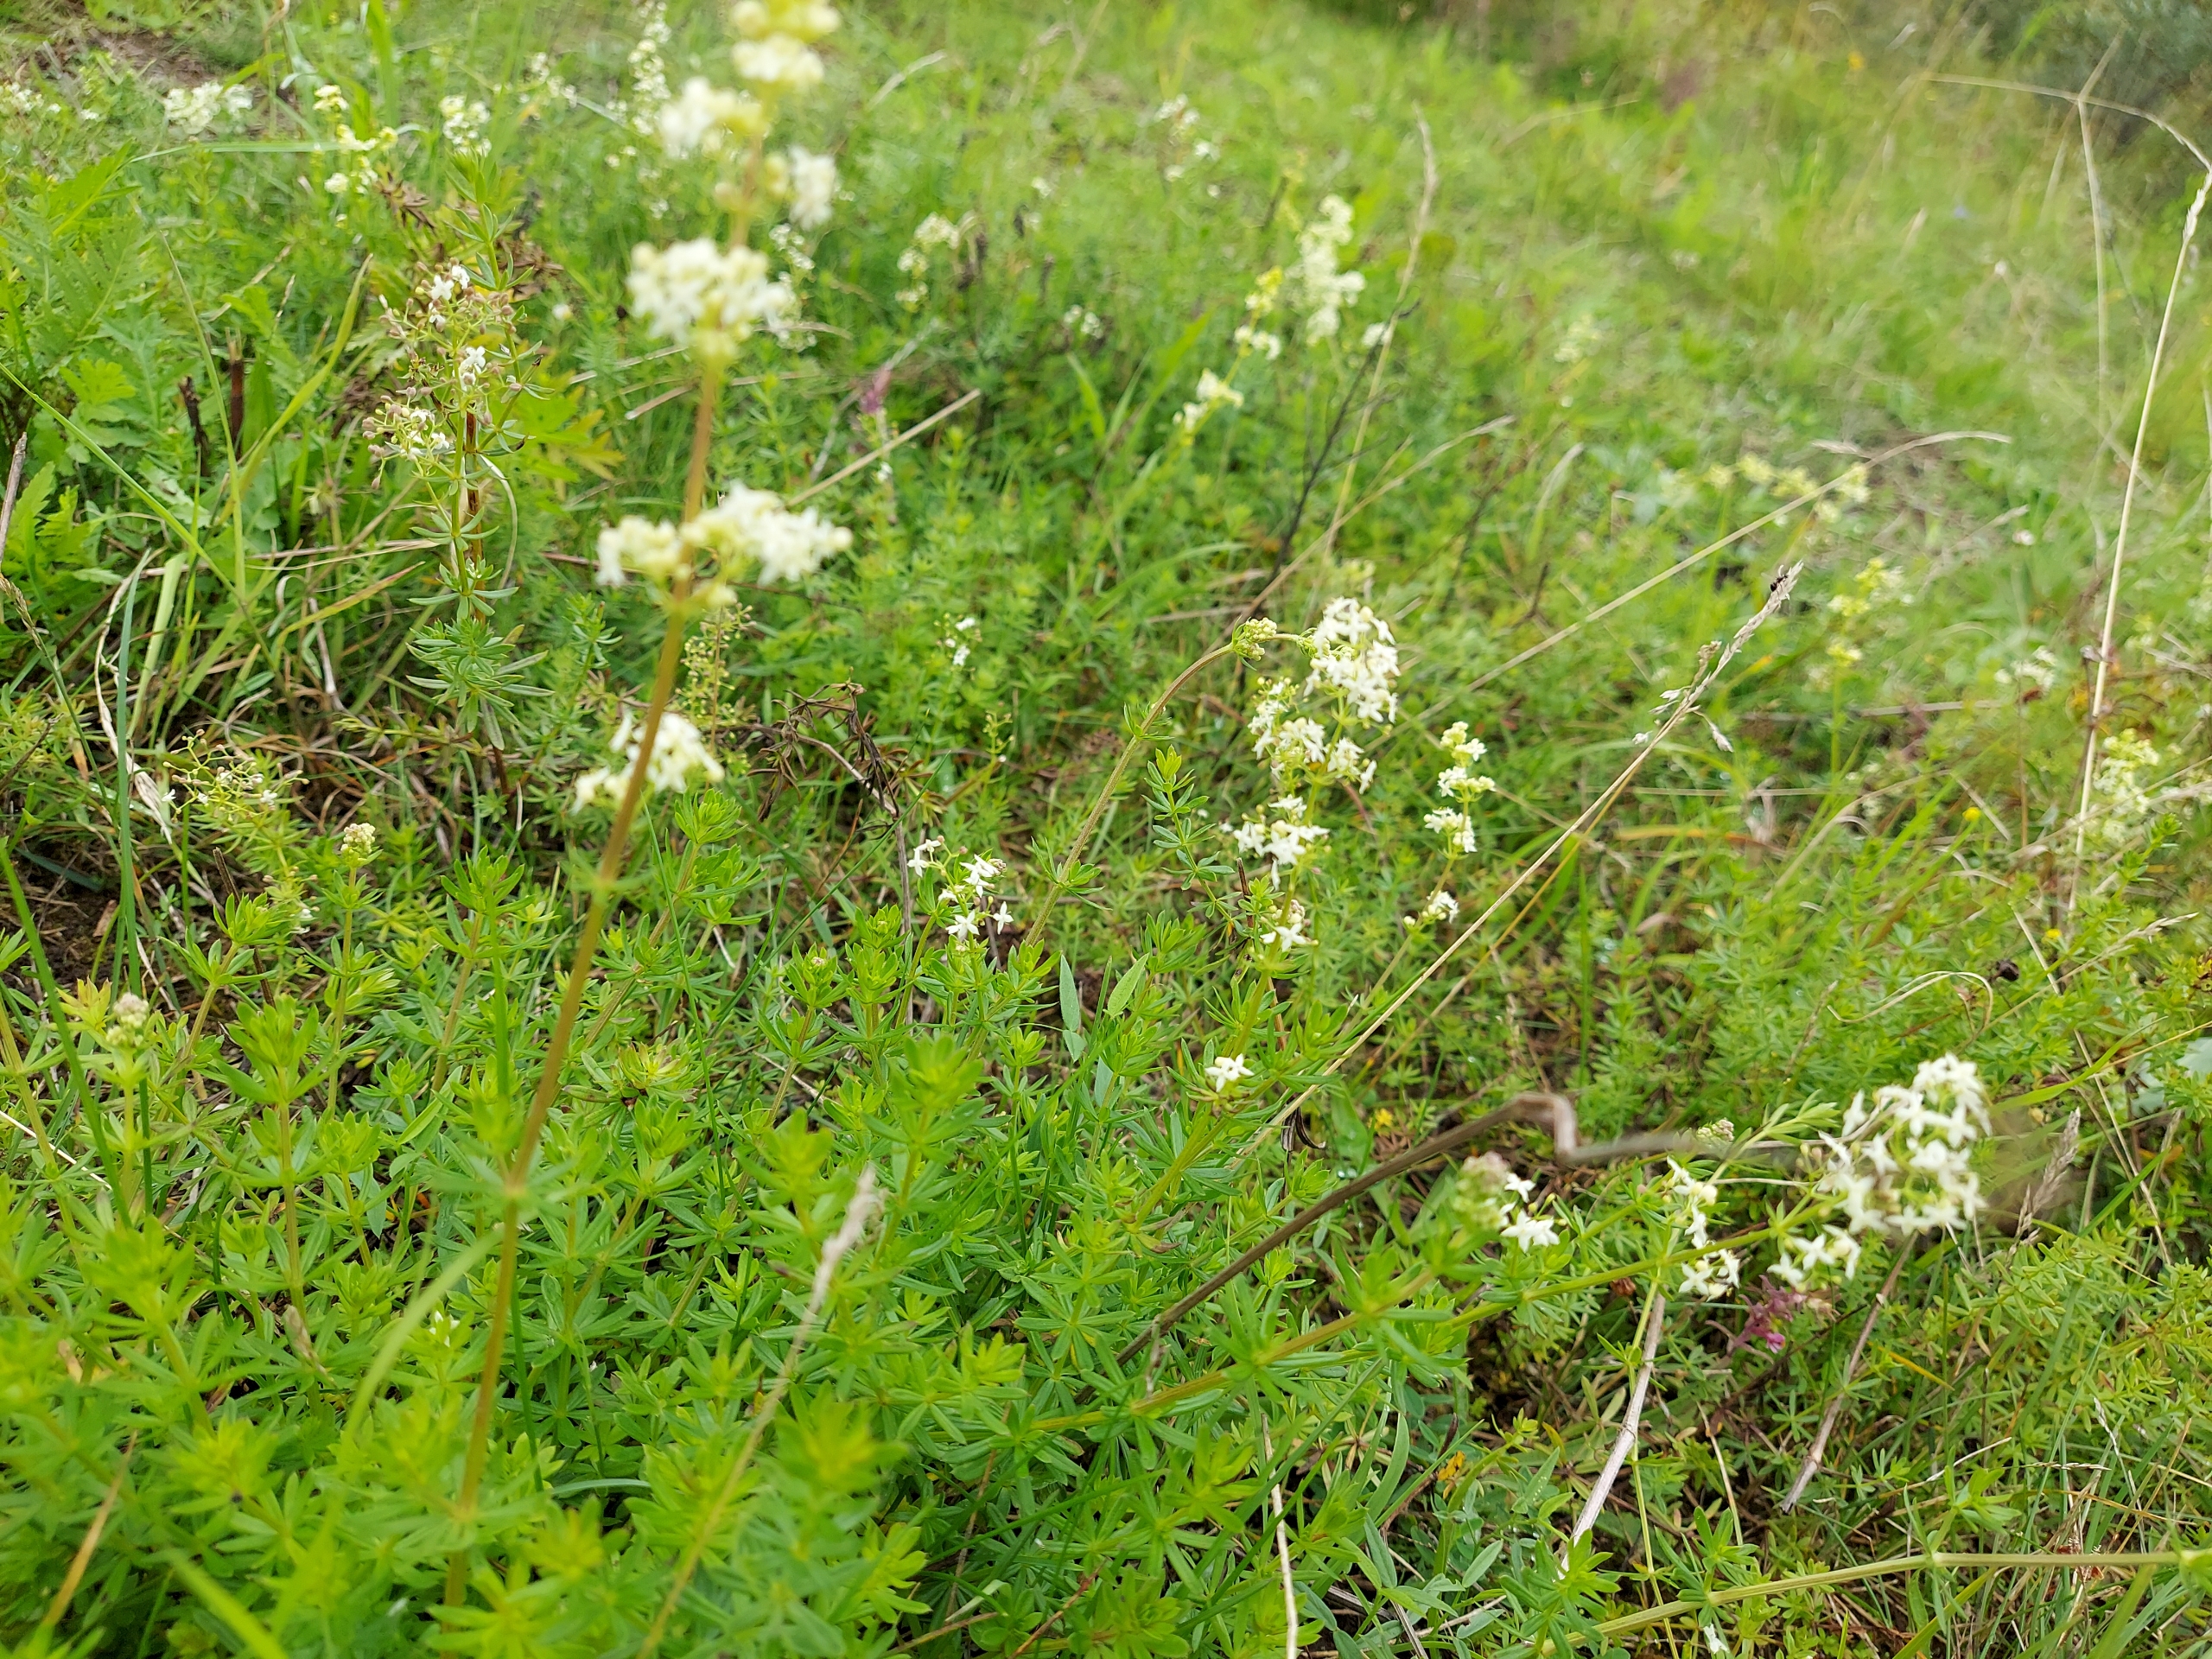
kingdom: Plantae
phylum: Tracheophyta
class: Magnoliopsida
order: Gentianales
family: Rubiaceae
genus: Galium
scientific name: Galium mollugo
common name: Hvid snerre
